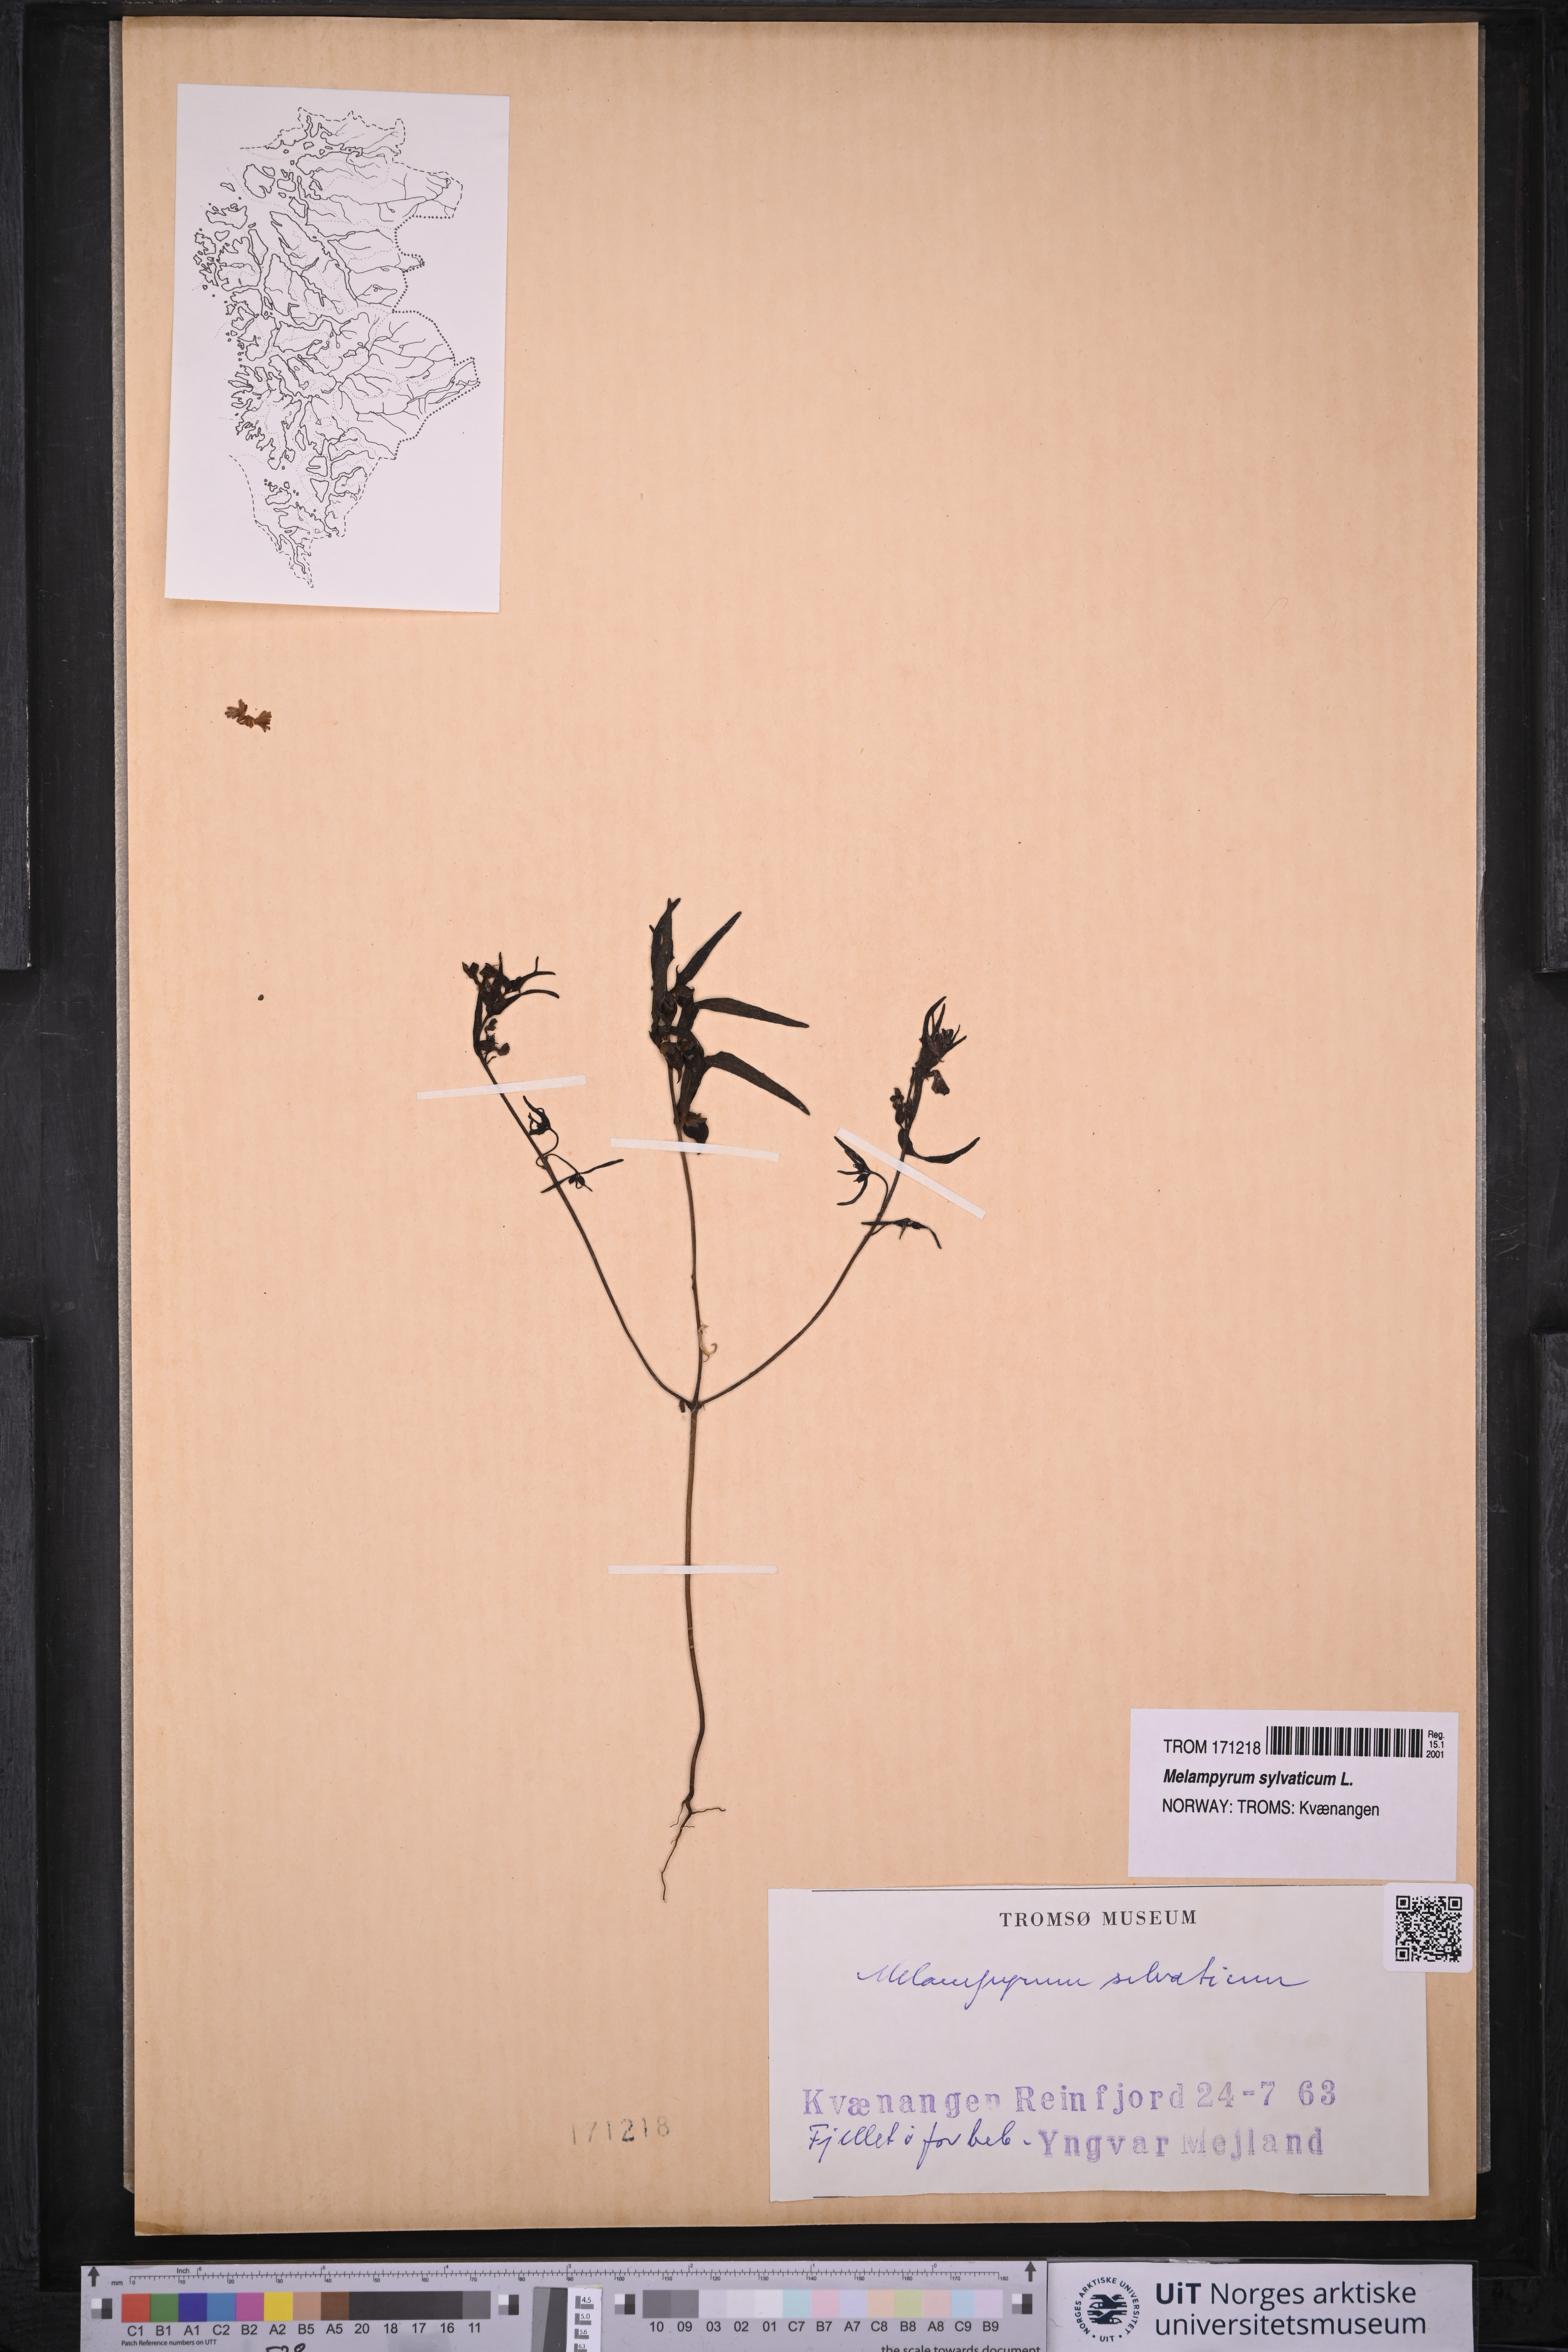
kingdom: Plantae
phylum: Tracheophyta
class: Magnoliopsida
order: Lamiales
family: Orobanchaceae
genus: Melampyrum
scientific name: Melampyrum sylvaticum
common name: Small cow-wheat
